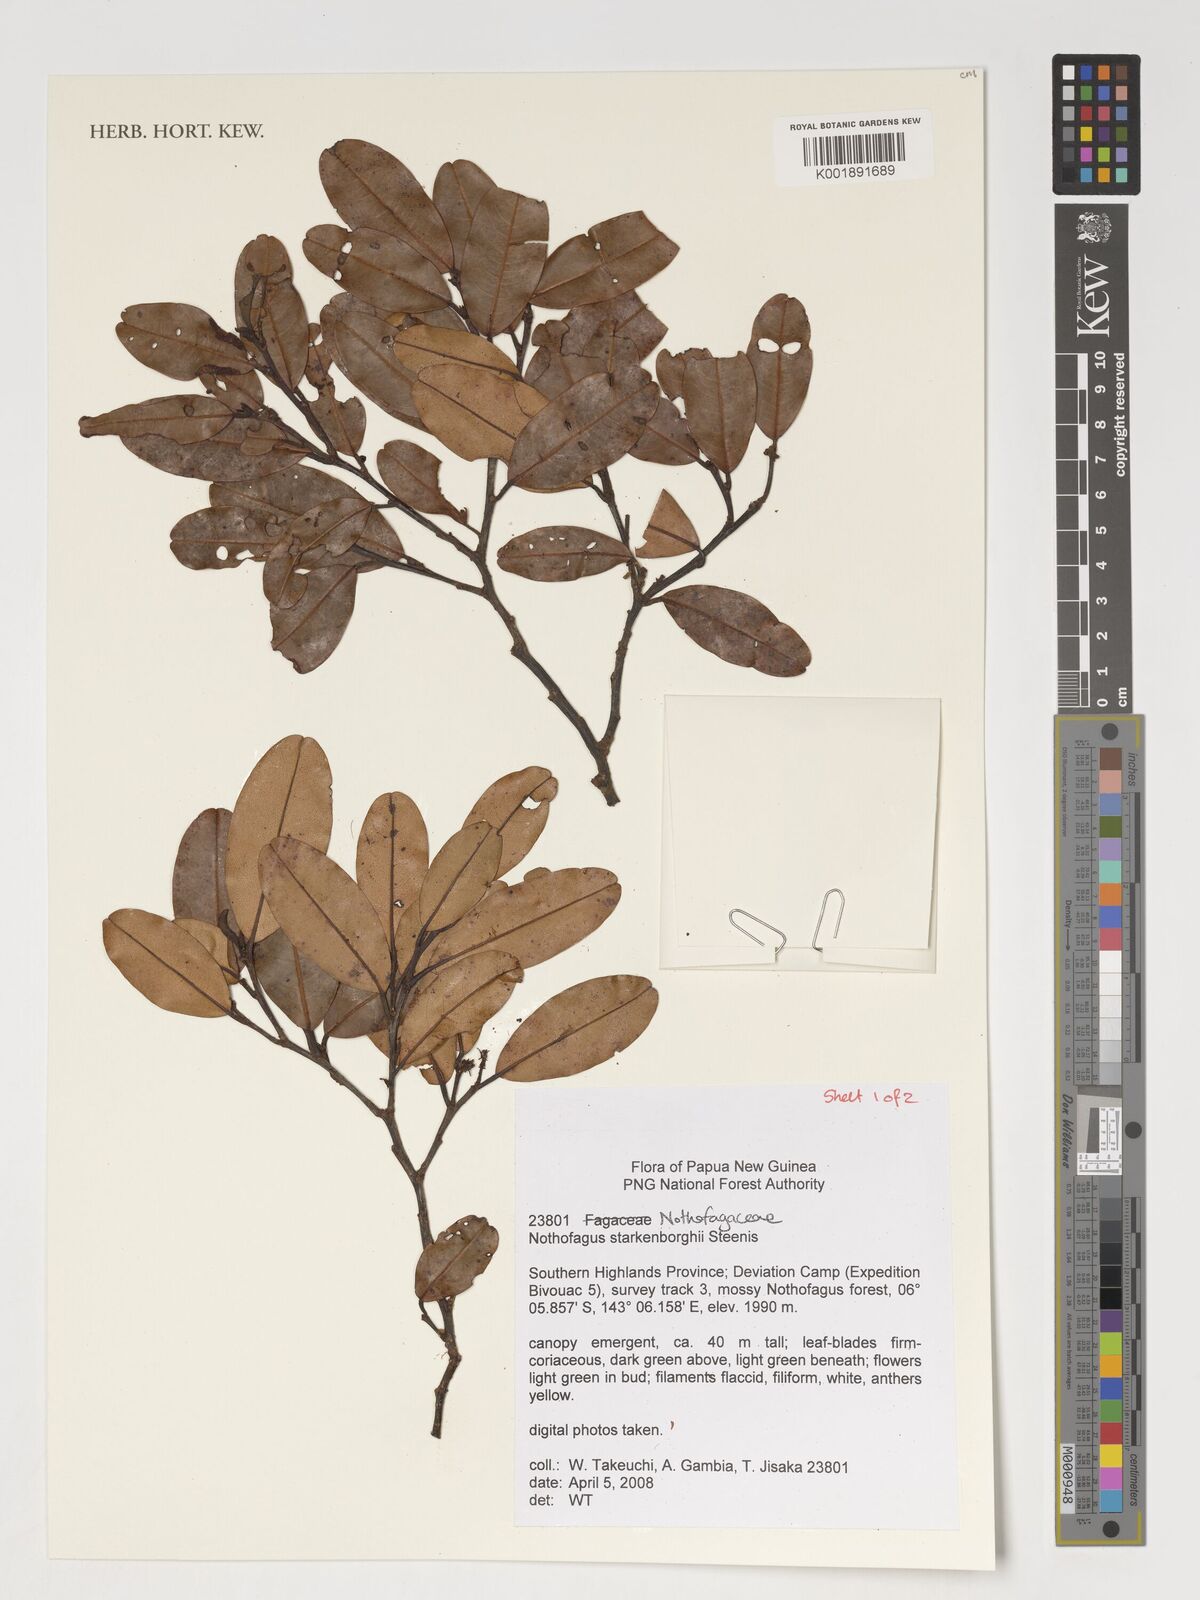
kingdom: Plantae
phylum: Tracheophyta
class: Magnoliopsida
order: Fagales
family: Nothofagaceae
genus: Nothofagus
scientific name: Nothofagus starkenborghiorum
